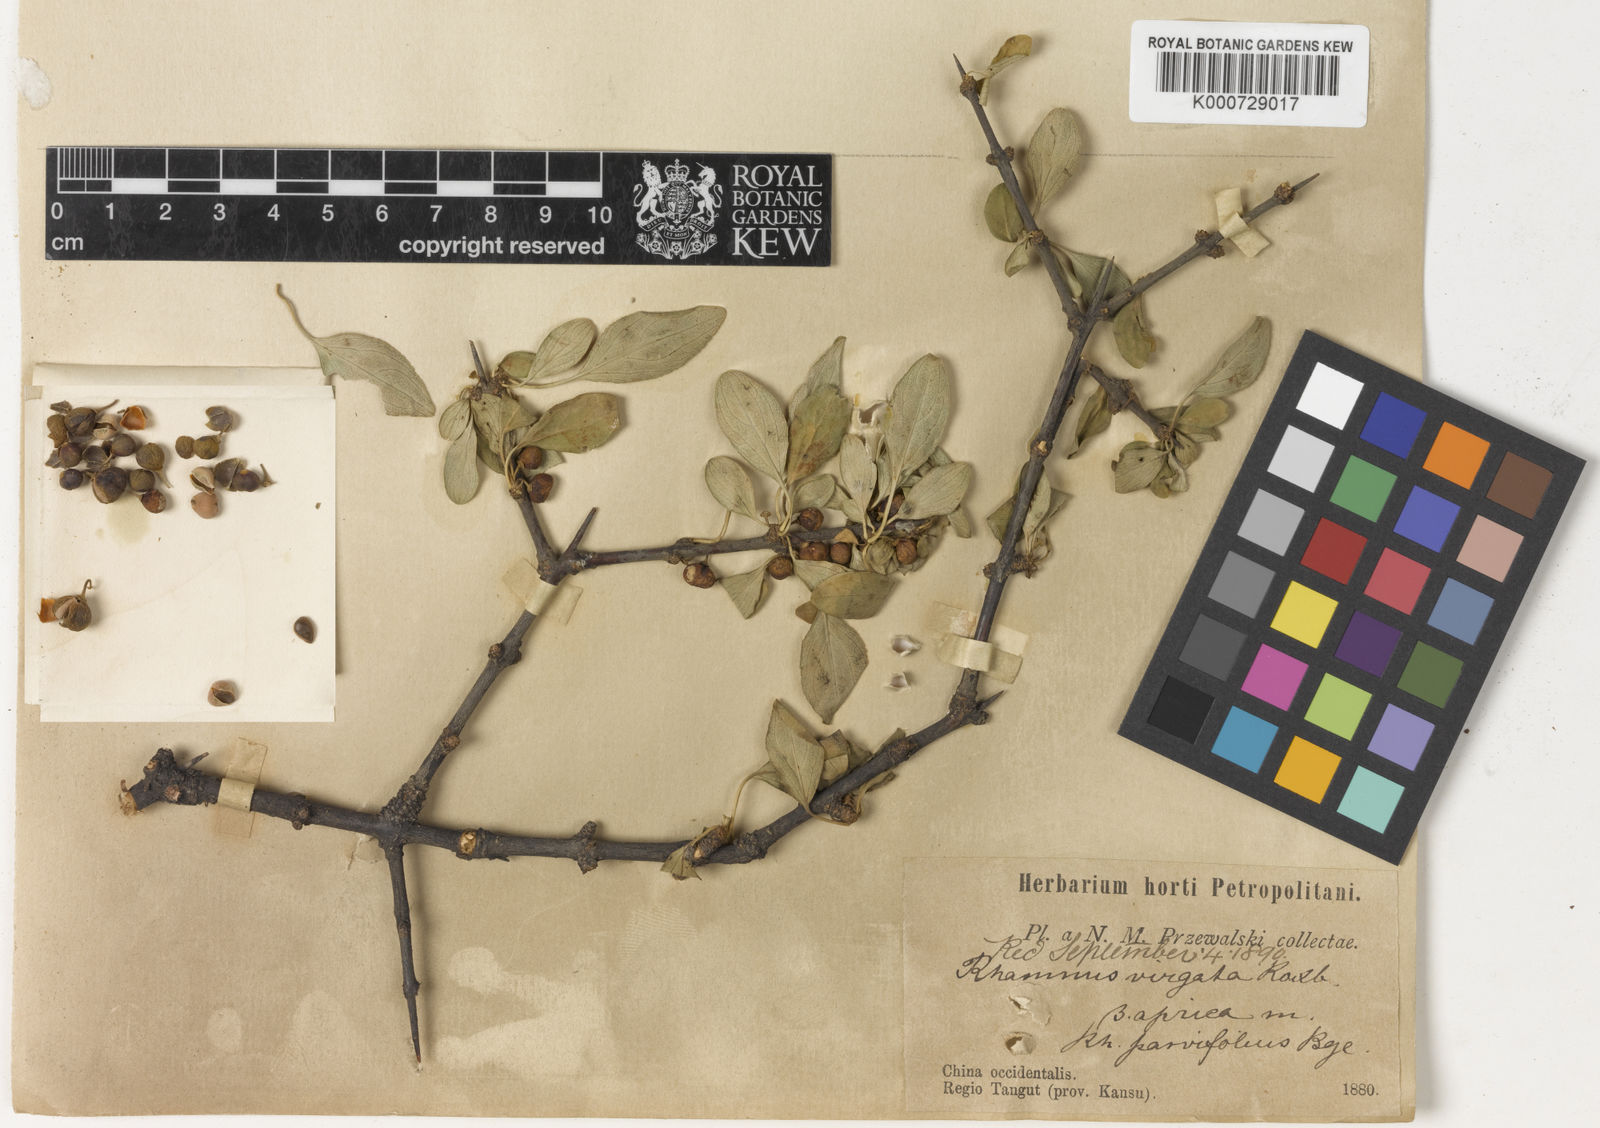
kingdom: Plantae
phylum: Tracheophyta
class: Magnoliopsida
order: Rosales
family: Rhamnaceae
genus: Rhamnus
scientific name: Rhamnus globosa
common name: Lokao
